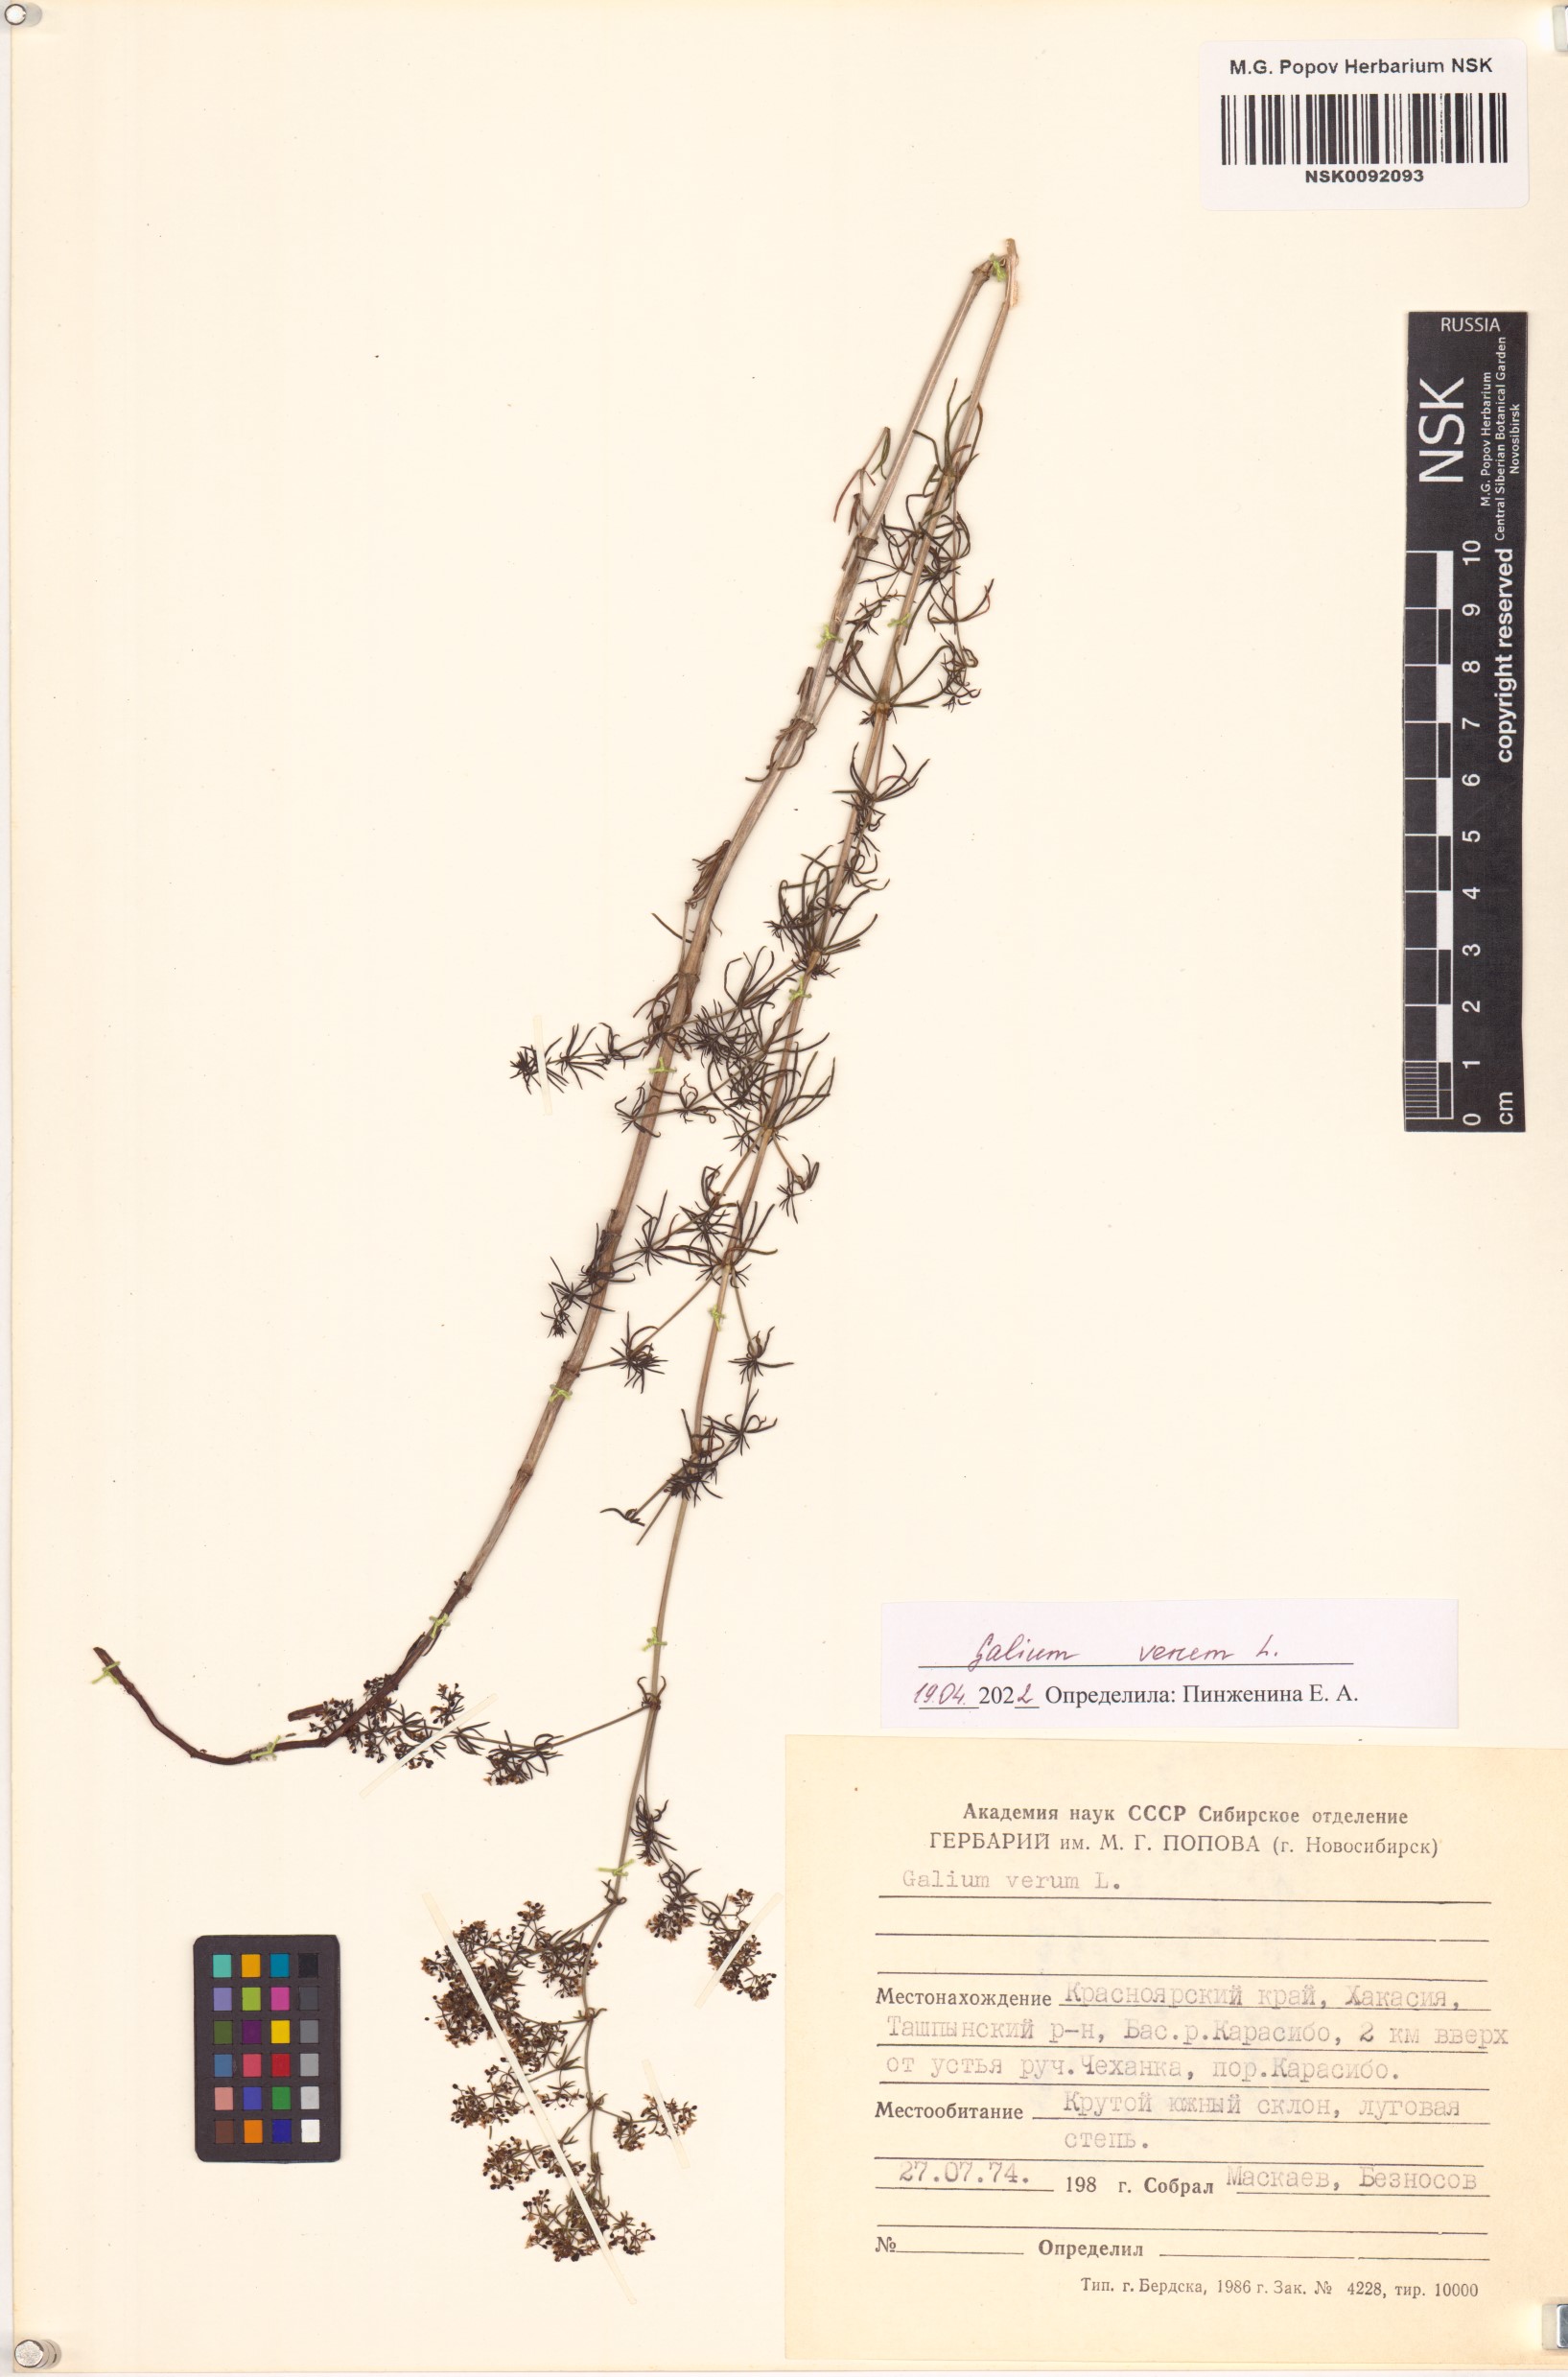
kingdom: Plantae
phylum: Tracheophyta
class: Magnoliopsida
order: Gentianales
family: Rubiaceae
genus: Galium
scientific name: Galium verum
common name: Lady's bedstraw
